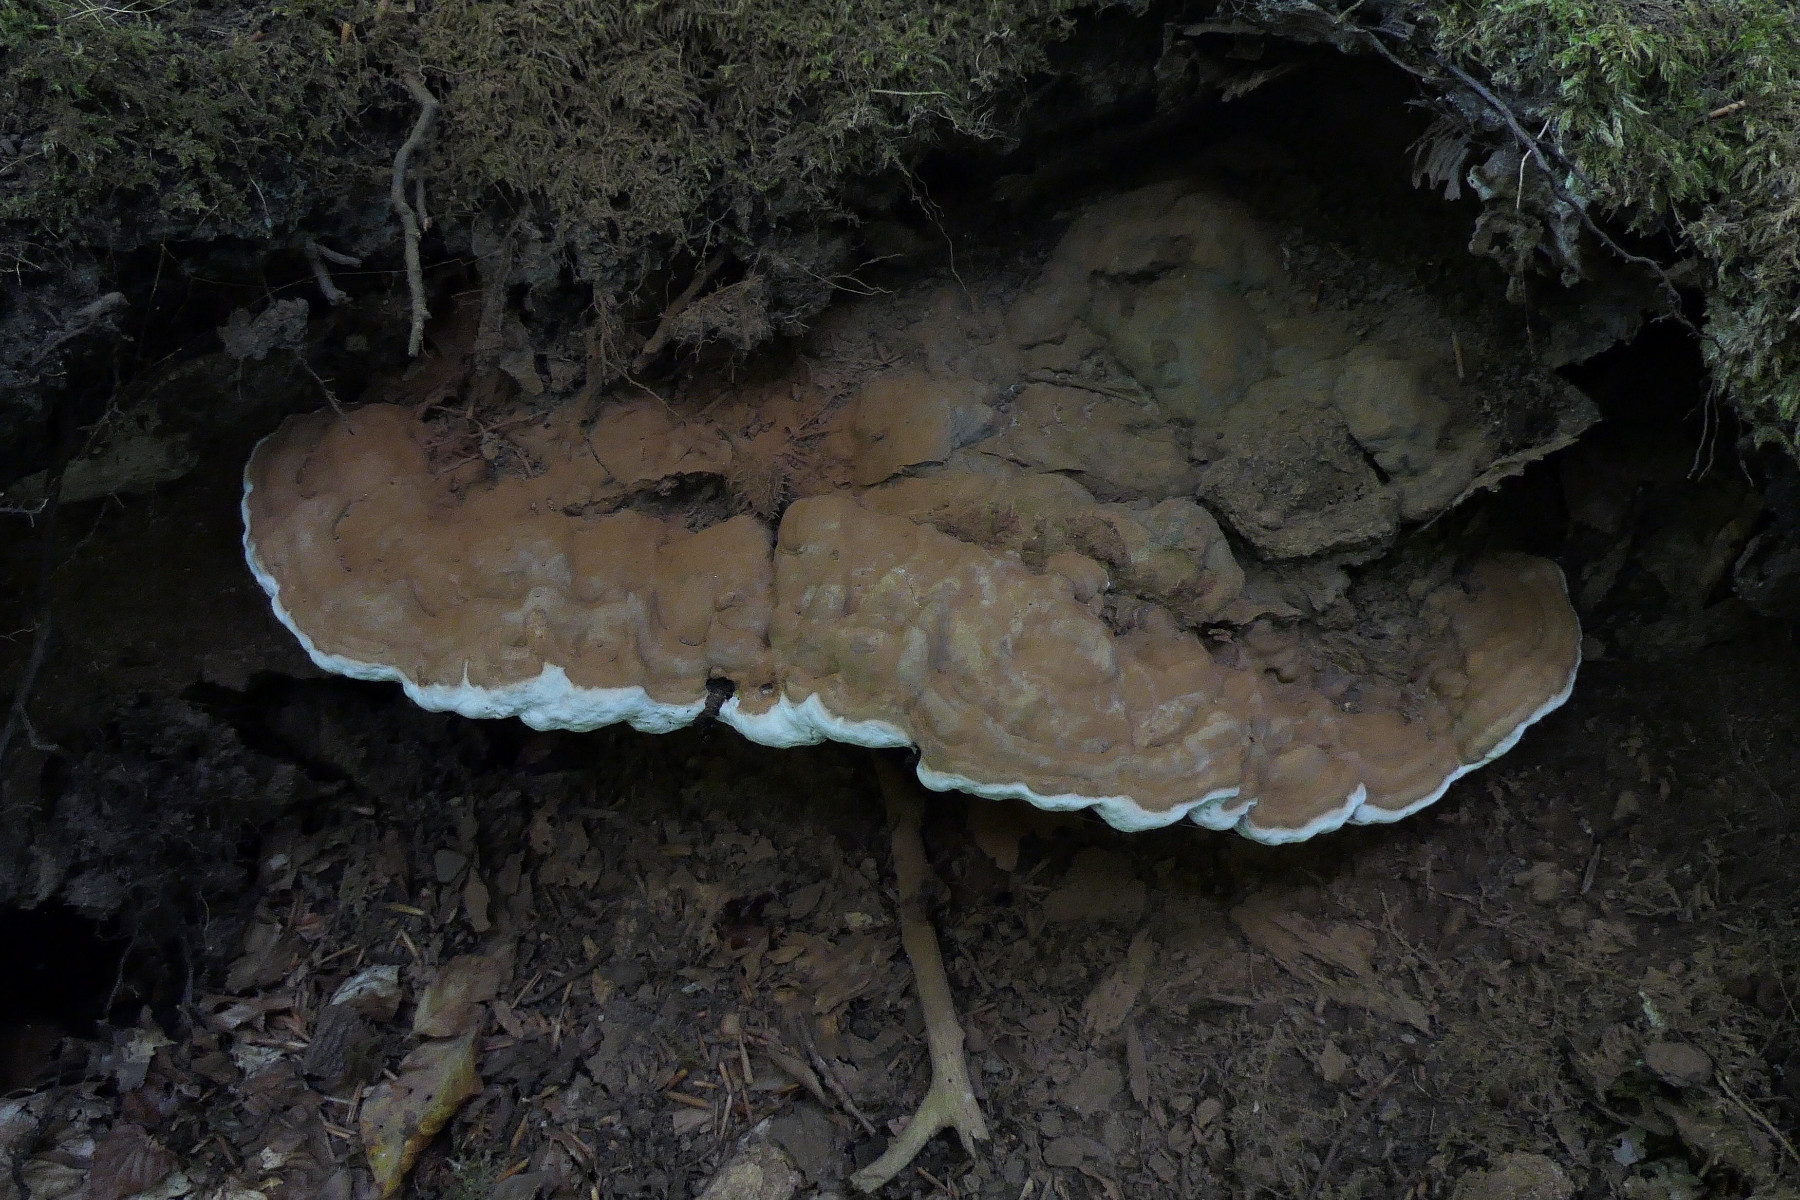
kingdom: Fungi
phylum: Basidiomycota
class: Agaricomycetes
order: Polyporales
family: Polyporaceae
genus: Ganoderma
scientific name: Ganoderma applanatum
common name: flad lakporesvamp
